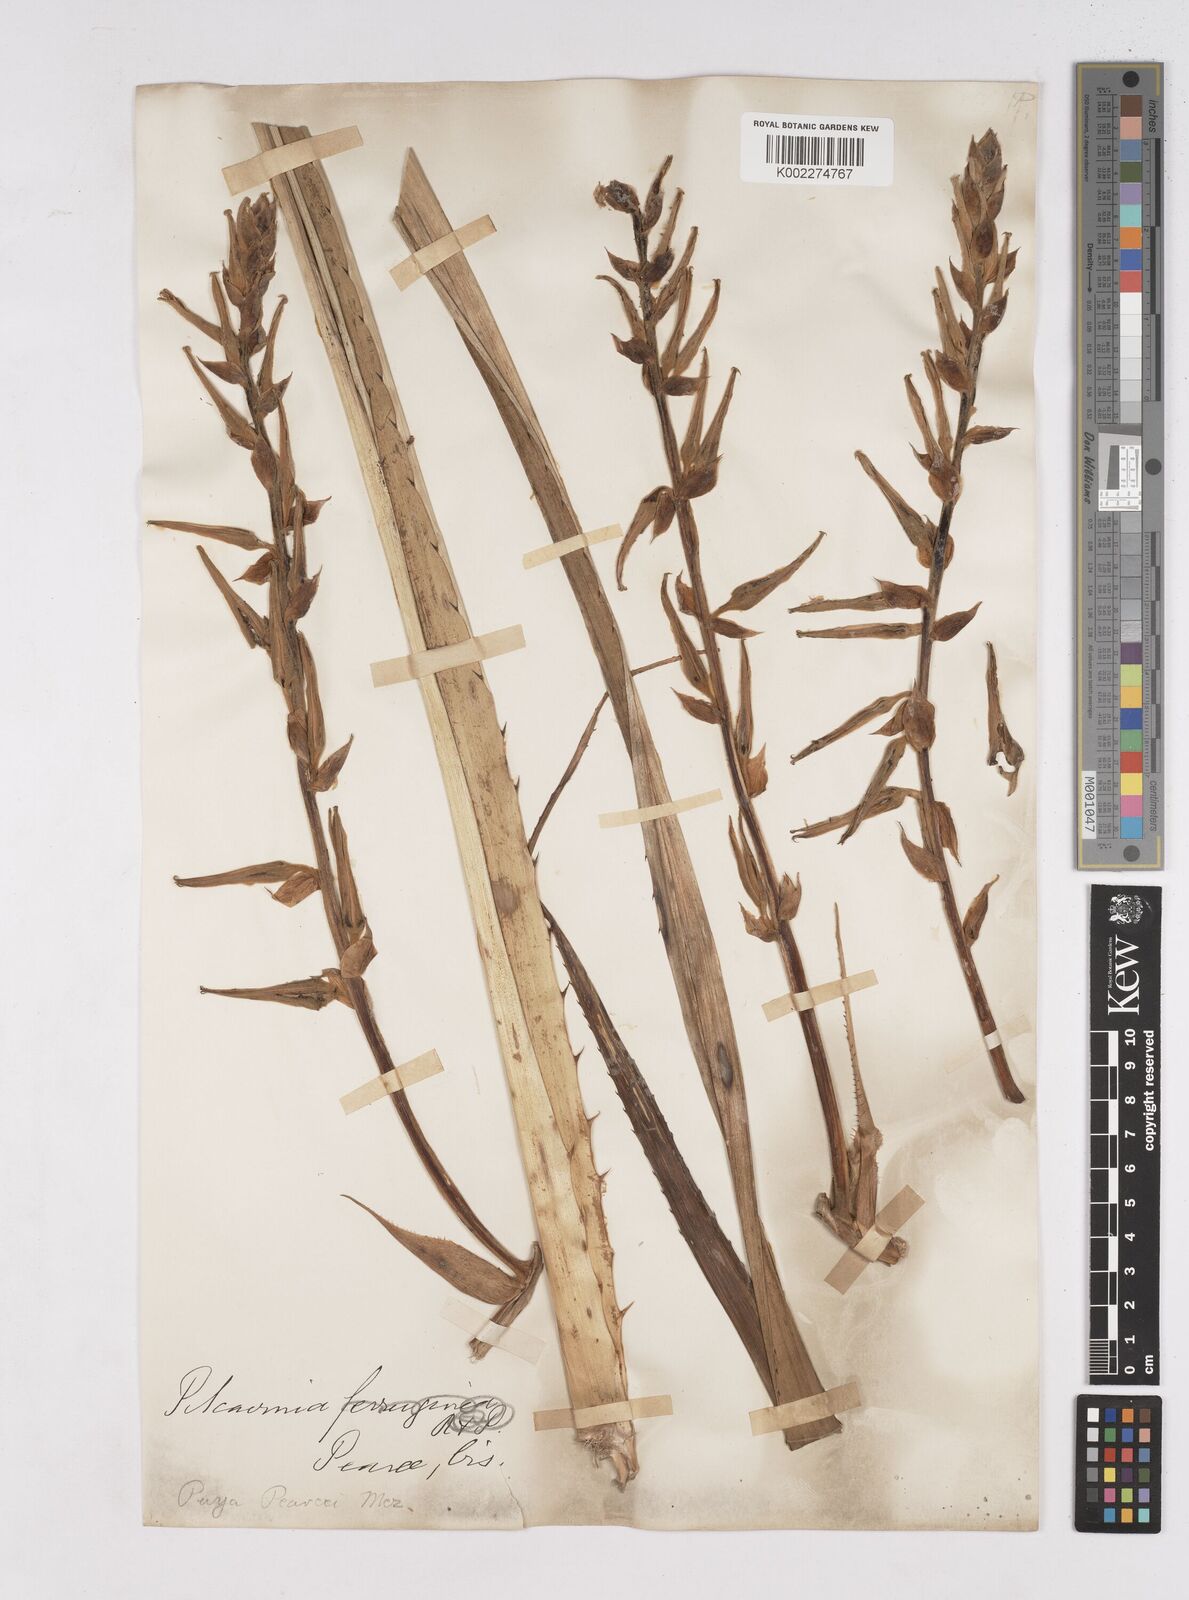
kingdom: Plantae
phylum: Tracheophyta
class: Liliopsida
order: Poales
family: Bromeliaceae
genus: Puya
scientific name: Puya pearcei
